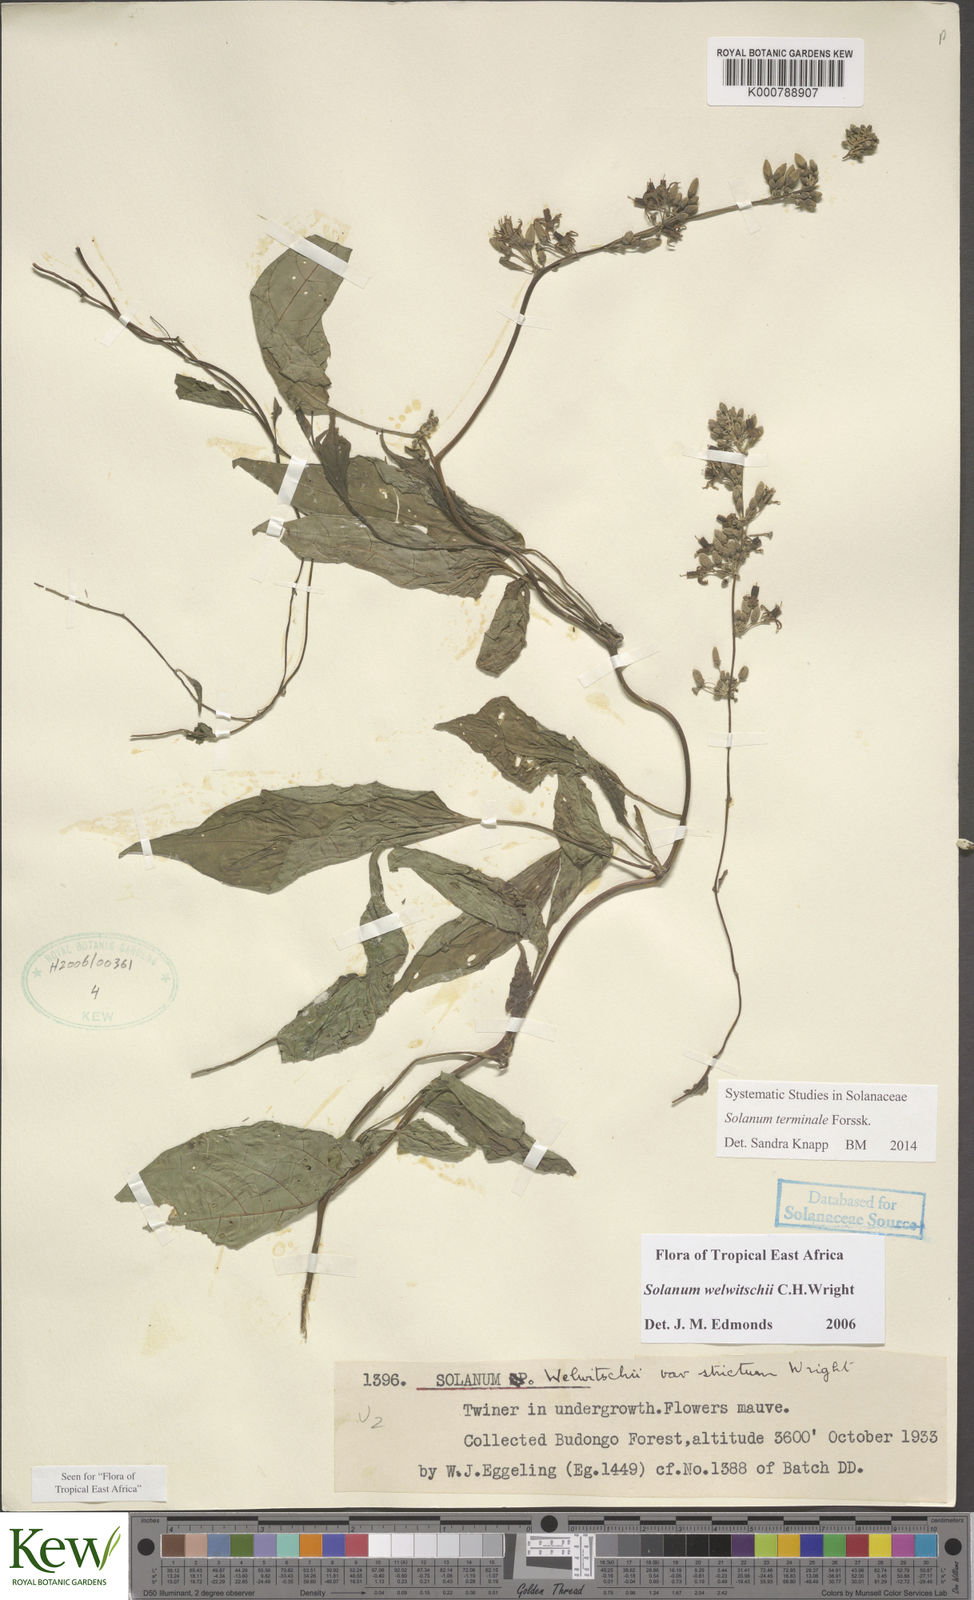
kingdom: Plantae
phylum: Tracheophyta
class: Magnoliopsida
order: Solanales
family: Solanaceae
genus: Solanum
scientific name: Solanum terminale
